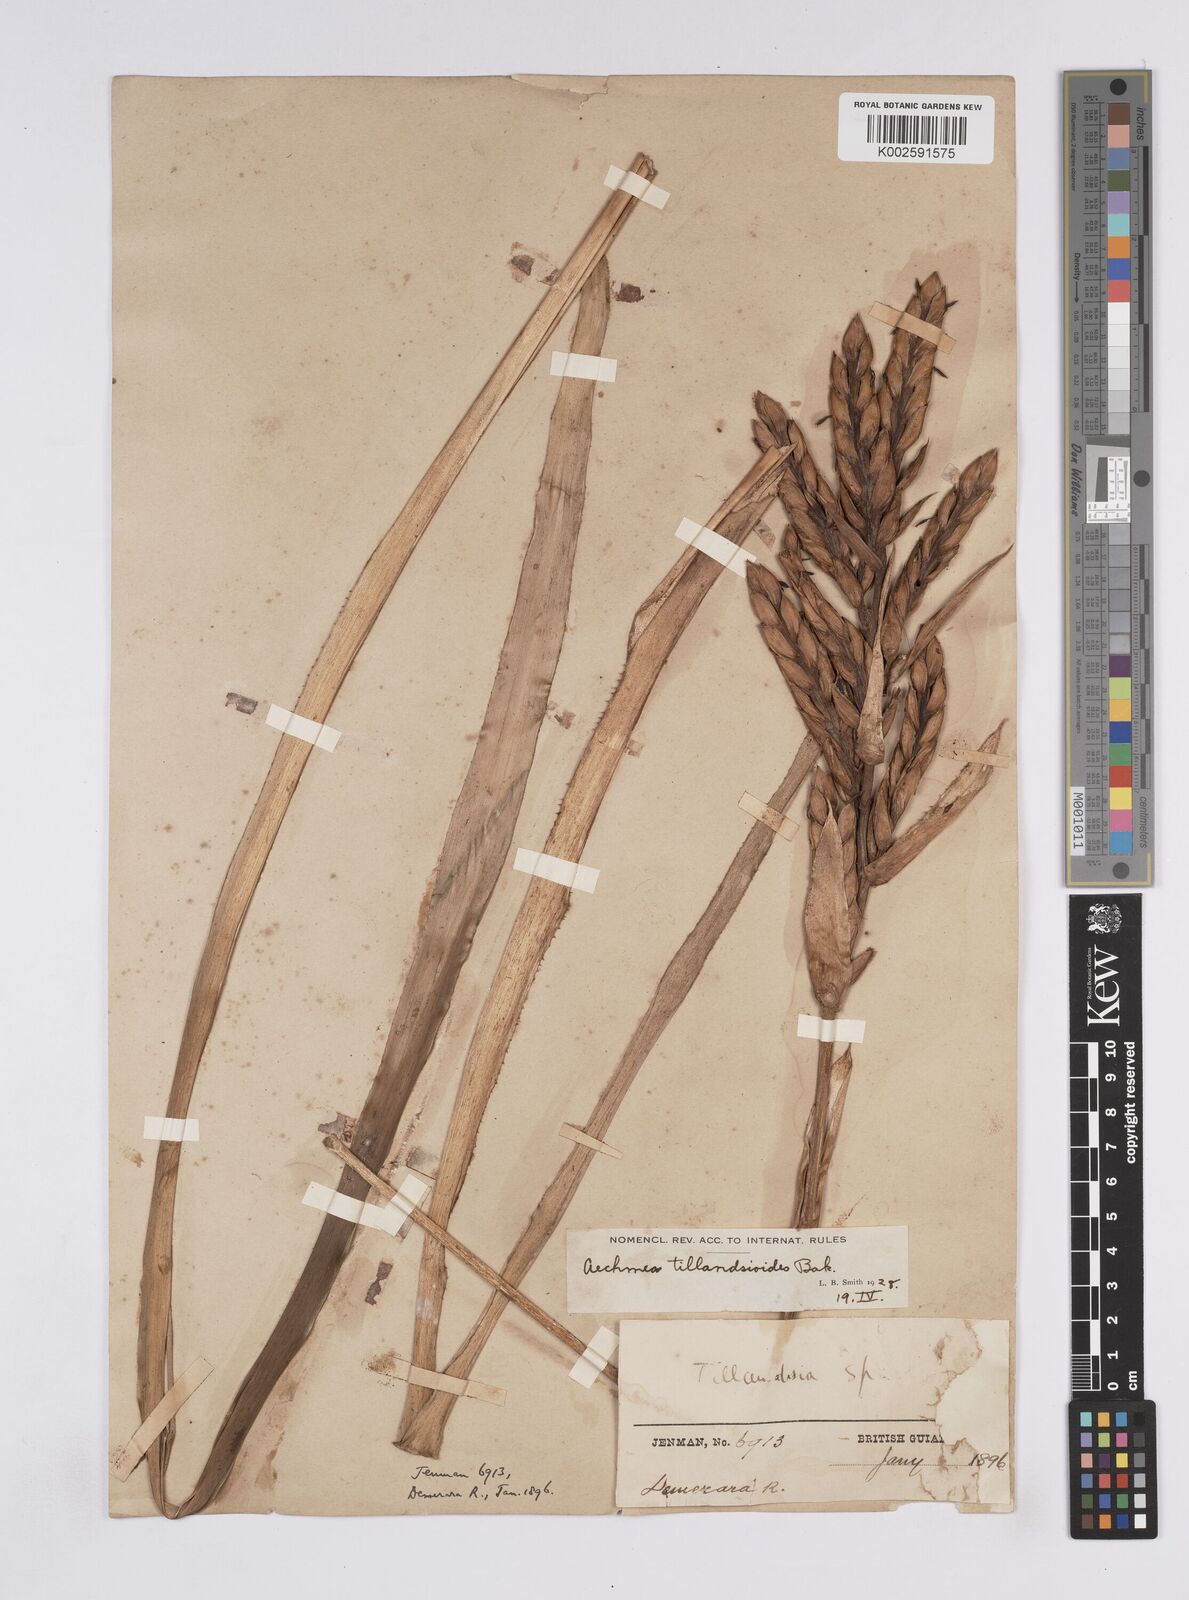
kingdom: Plantae
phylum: Tracheophyta
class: Liliopsida
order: Poales
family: Bromeliaceae
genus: Aechmea
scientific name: Aechmea tillandsioides
